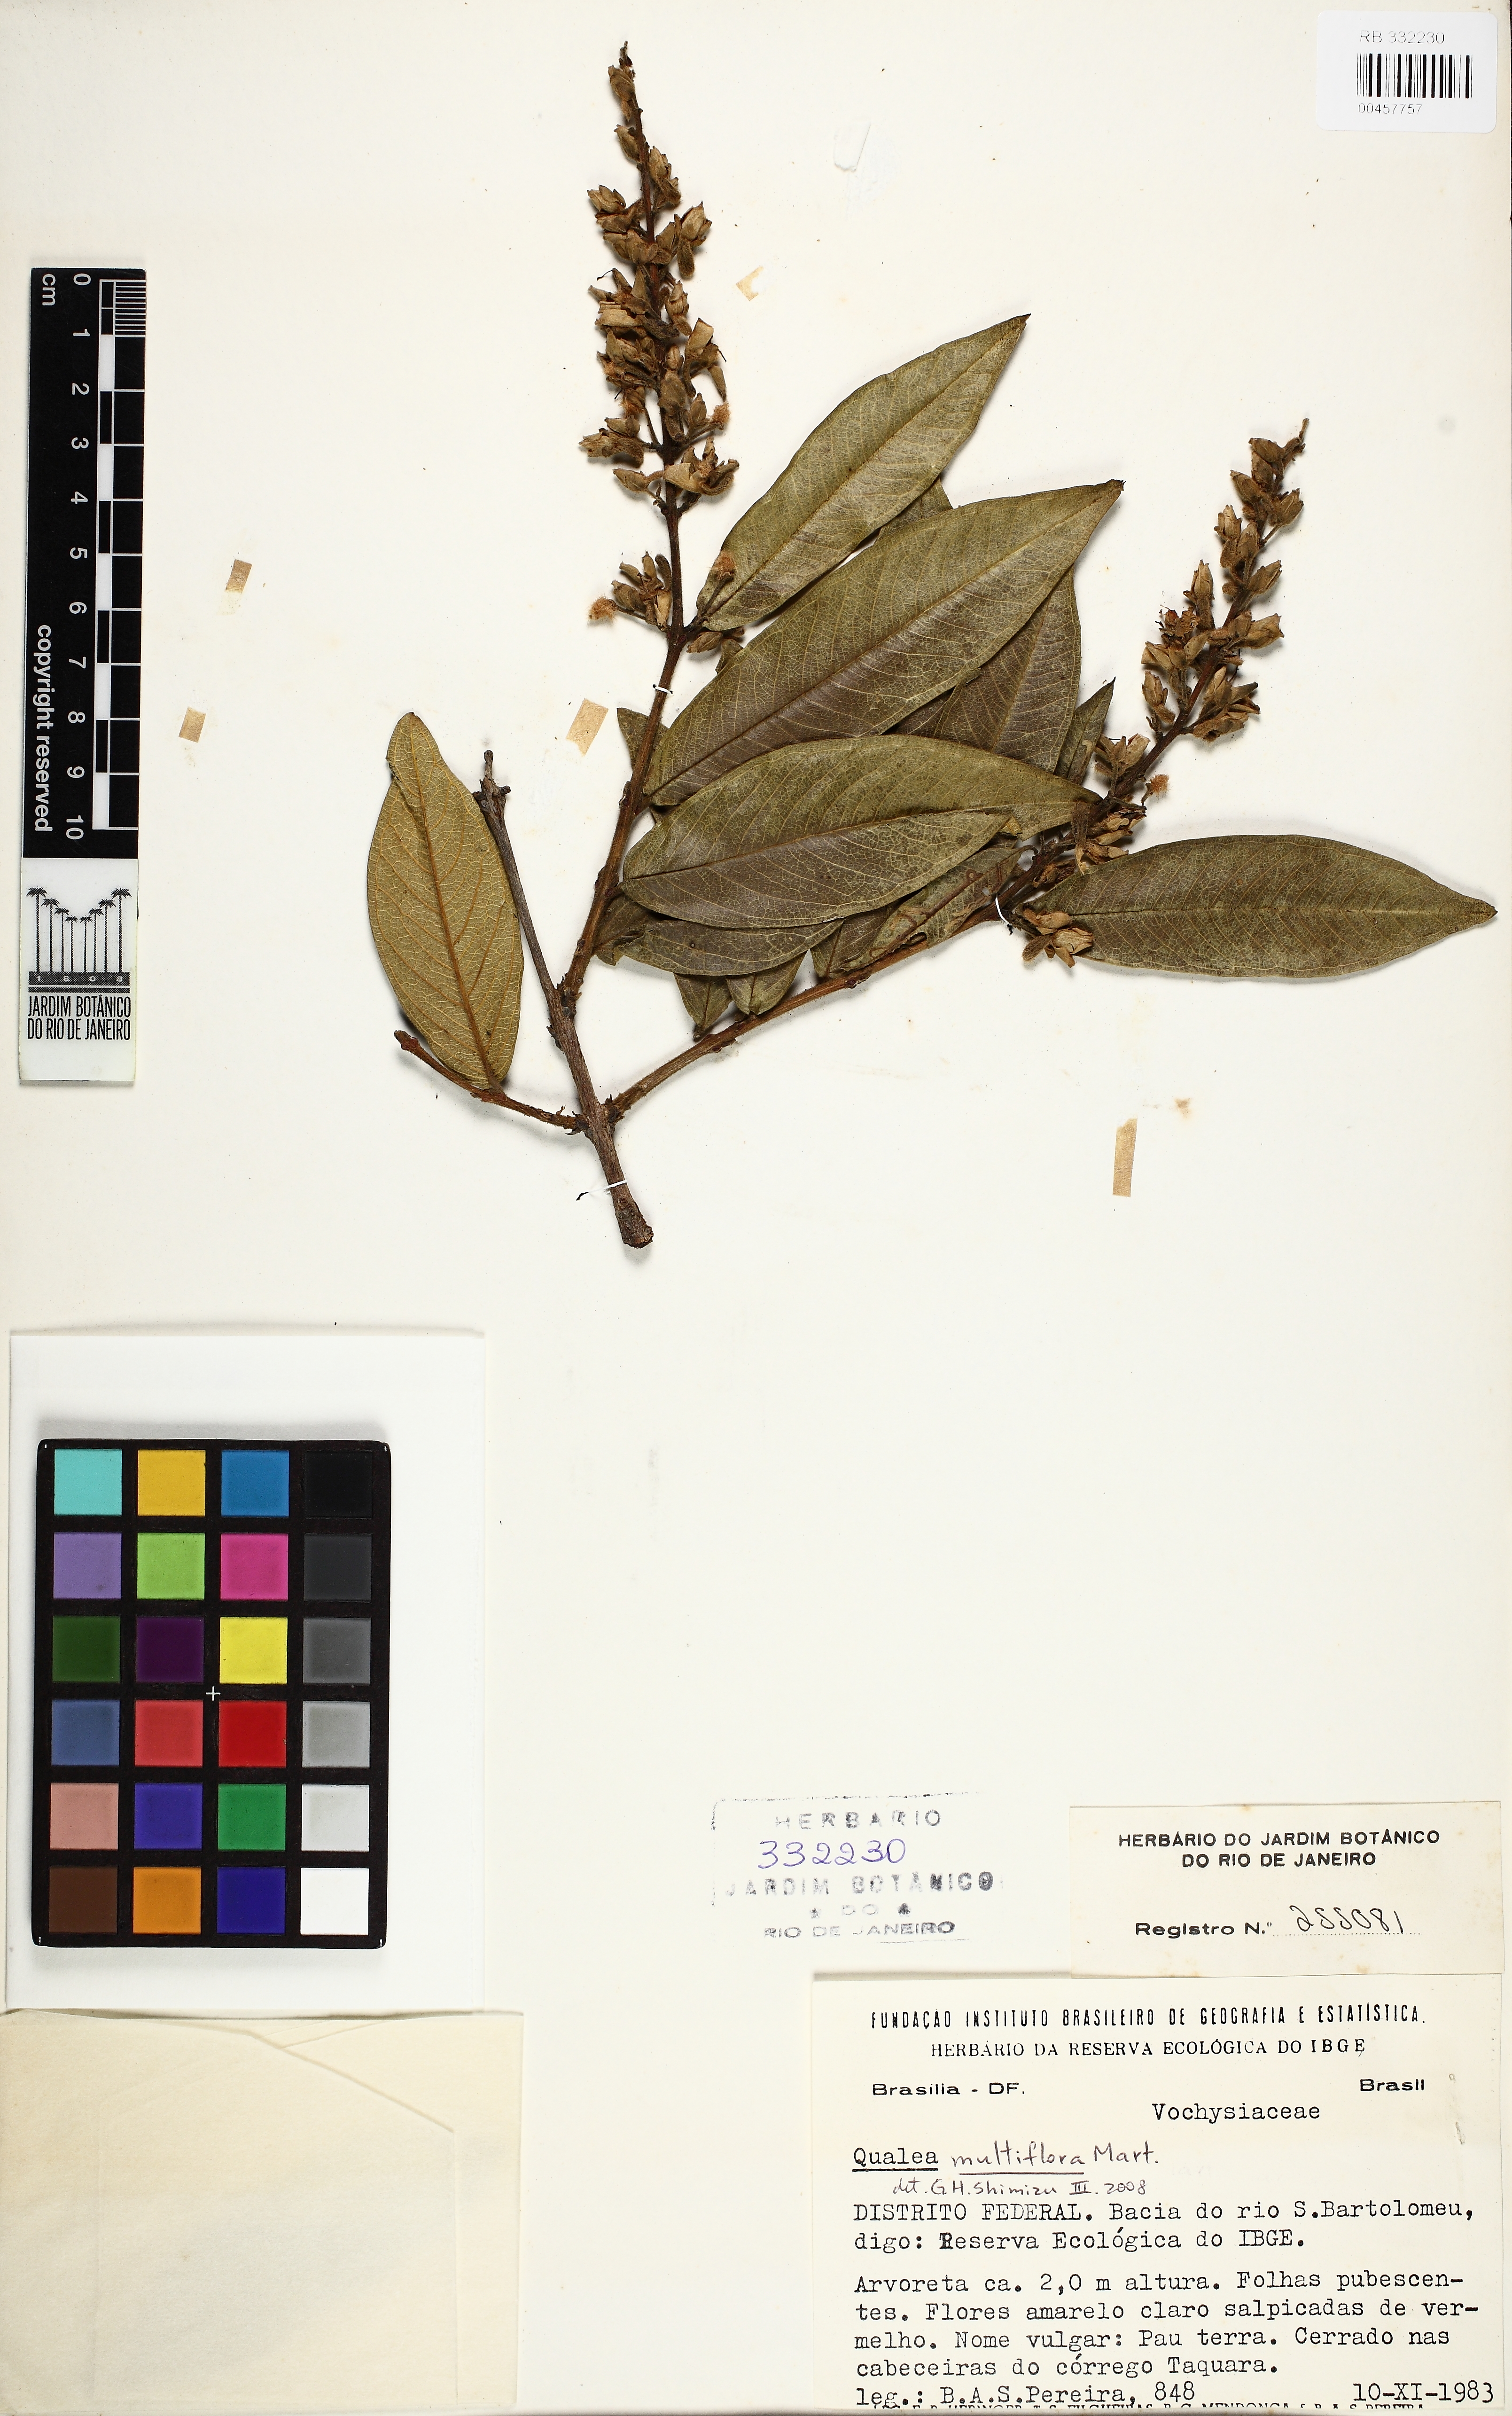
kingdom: Plantae
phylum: Tracheophyta
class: Magnoliopsida
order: Myrtales
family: Vochysiaceae
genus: Qualea
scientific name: Qualea multiflora
